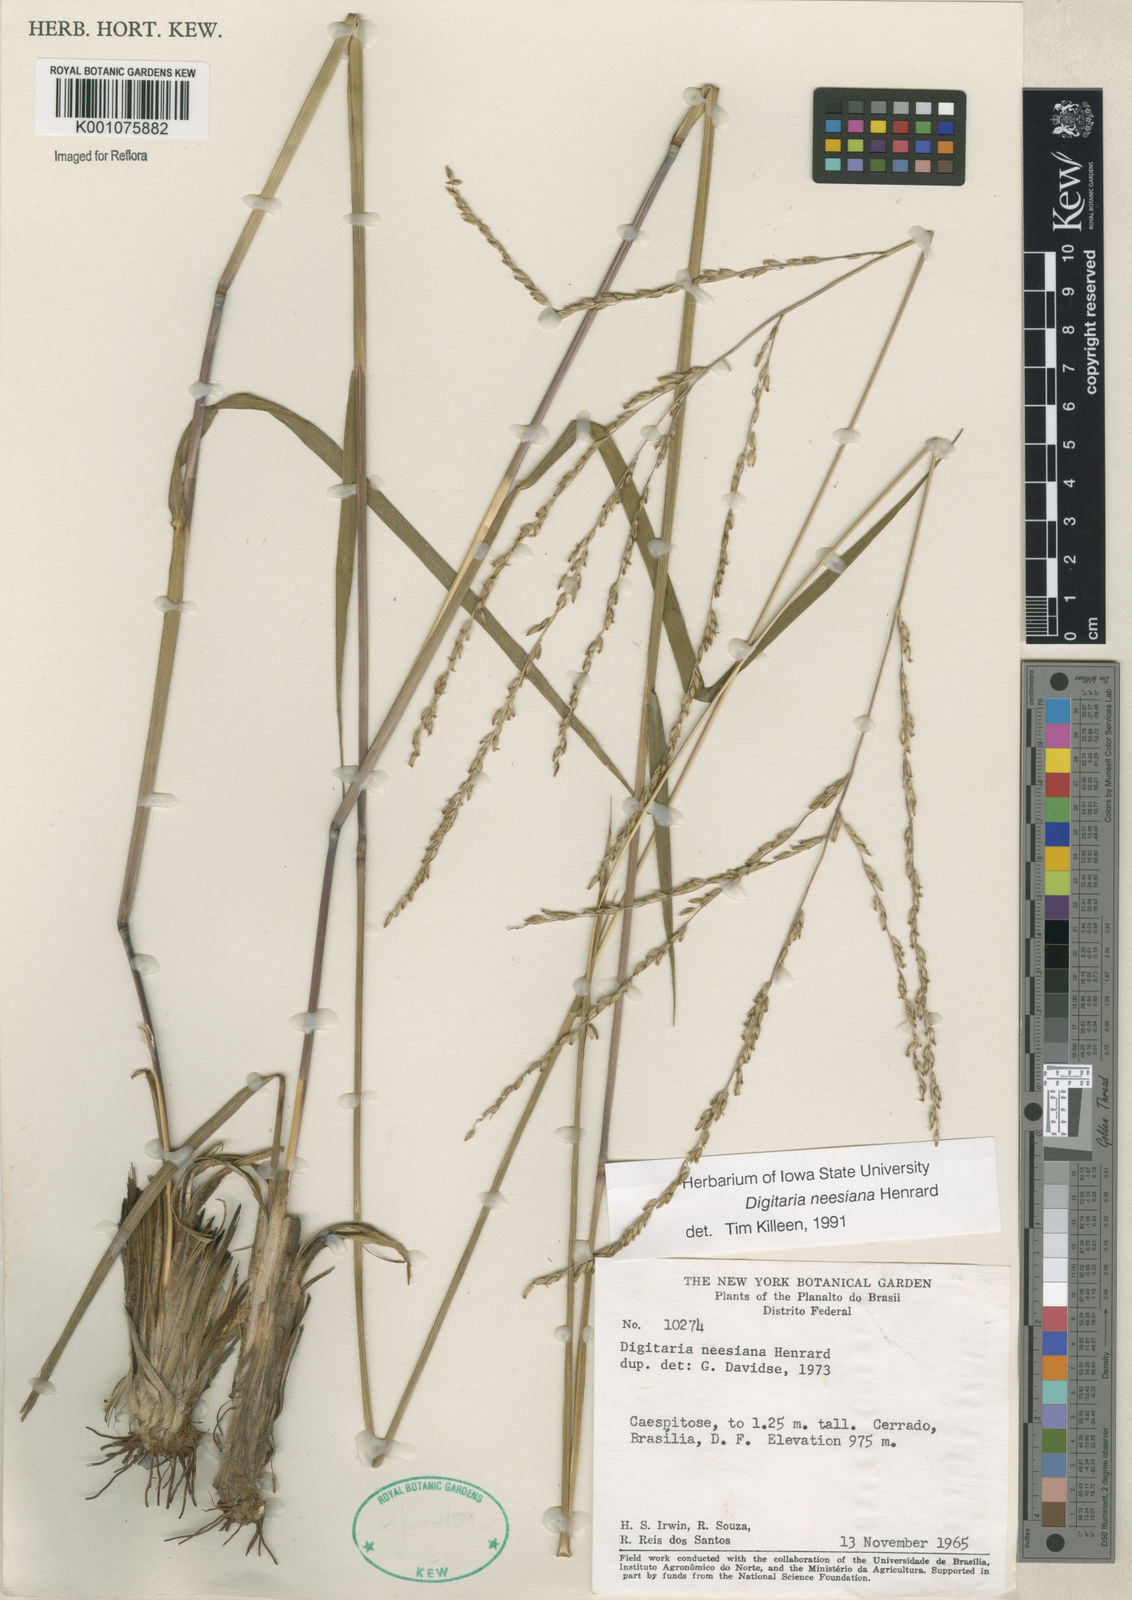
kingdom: Plantae
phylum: Tracheophyta
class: Liliopsida
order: Poales
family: Poaceae
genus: Digitaria
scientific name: Digitaria neesiana
